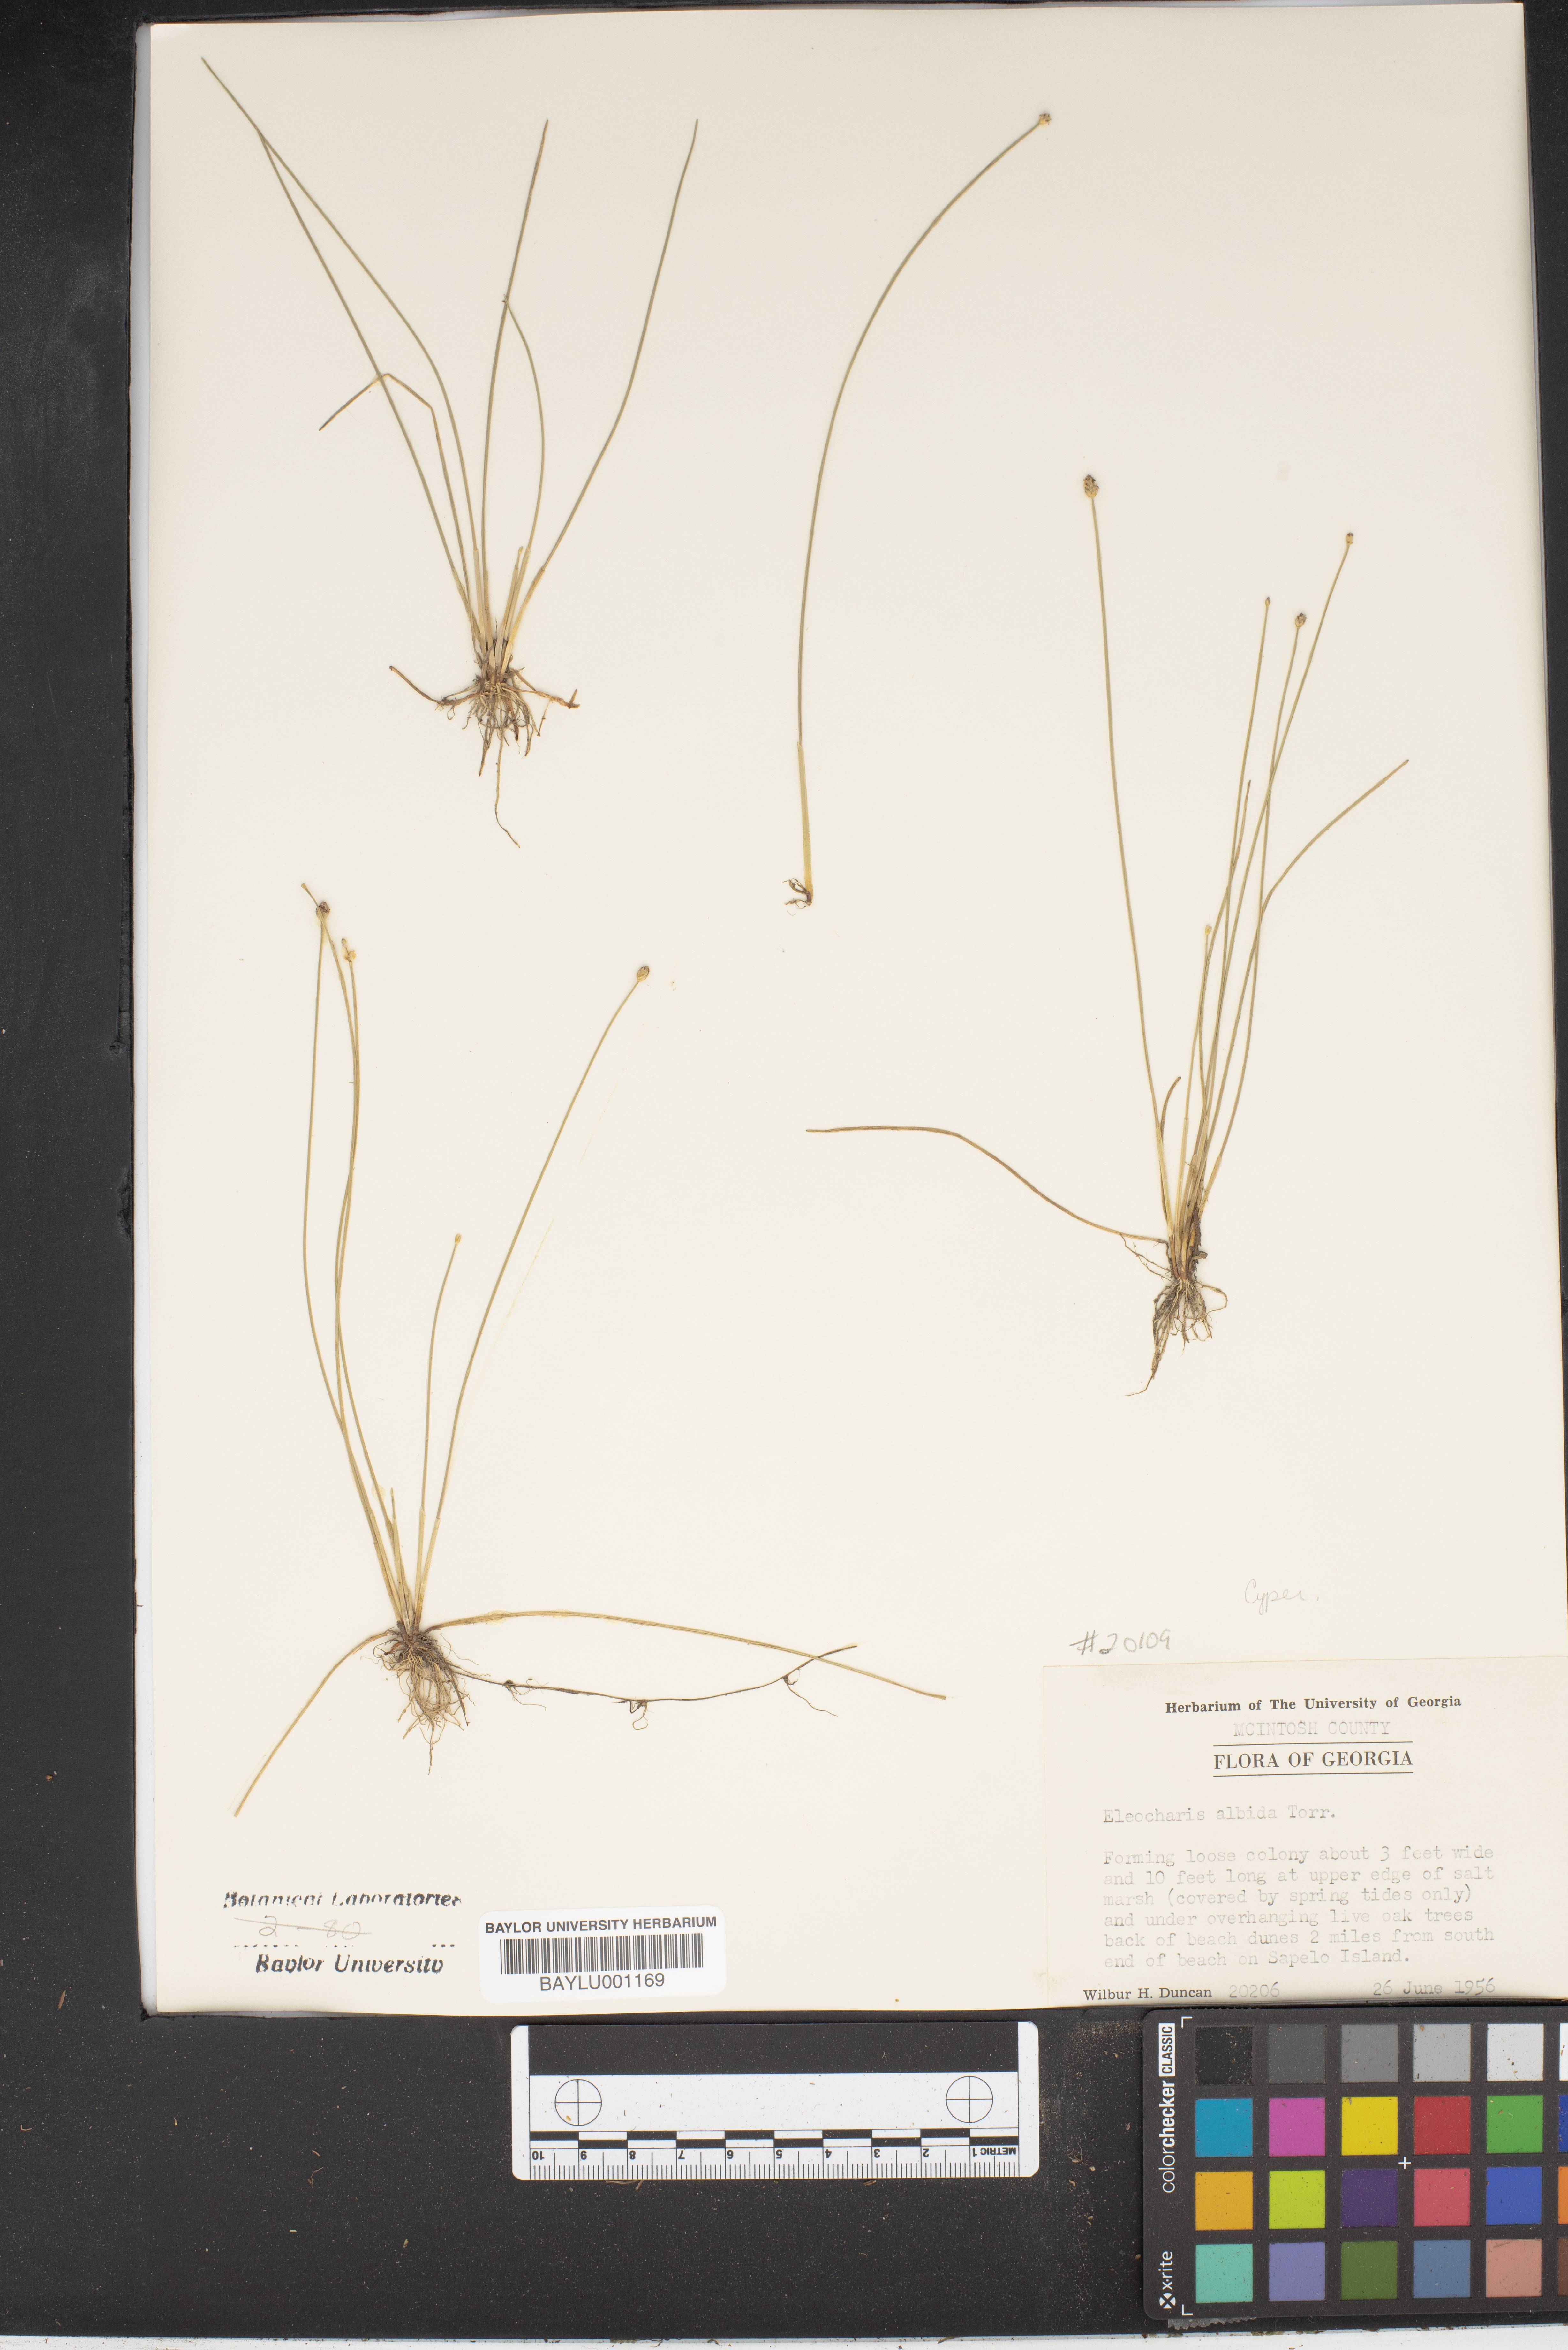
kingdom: Plantae
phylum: Tracheophyta
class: Liliopsida
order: Poales
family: Cyperaceae
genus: Eleocharis
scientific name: Eleocharis albida
